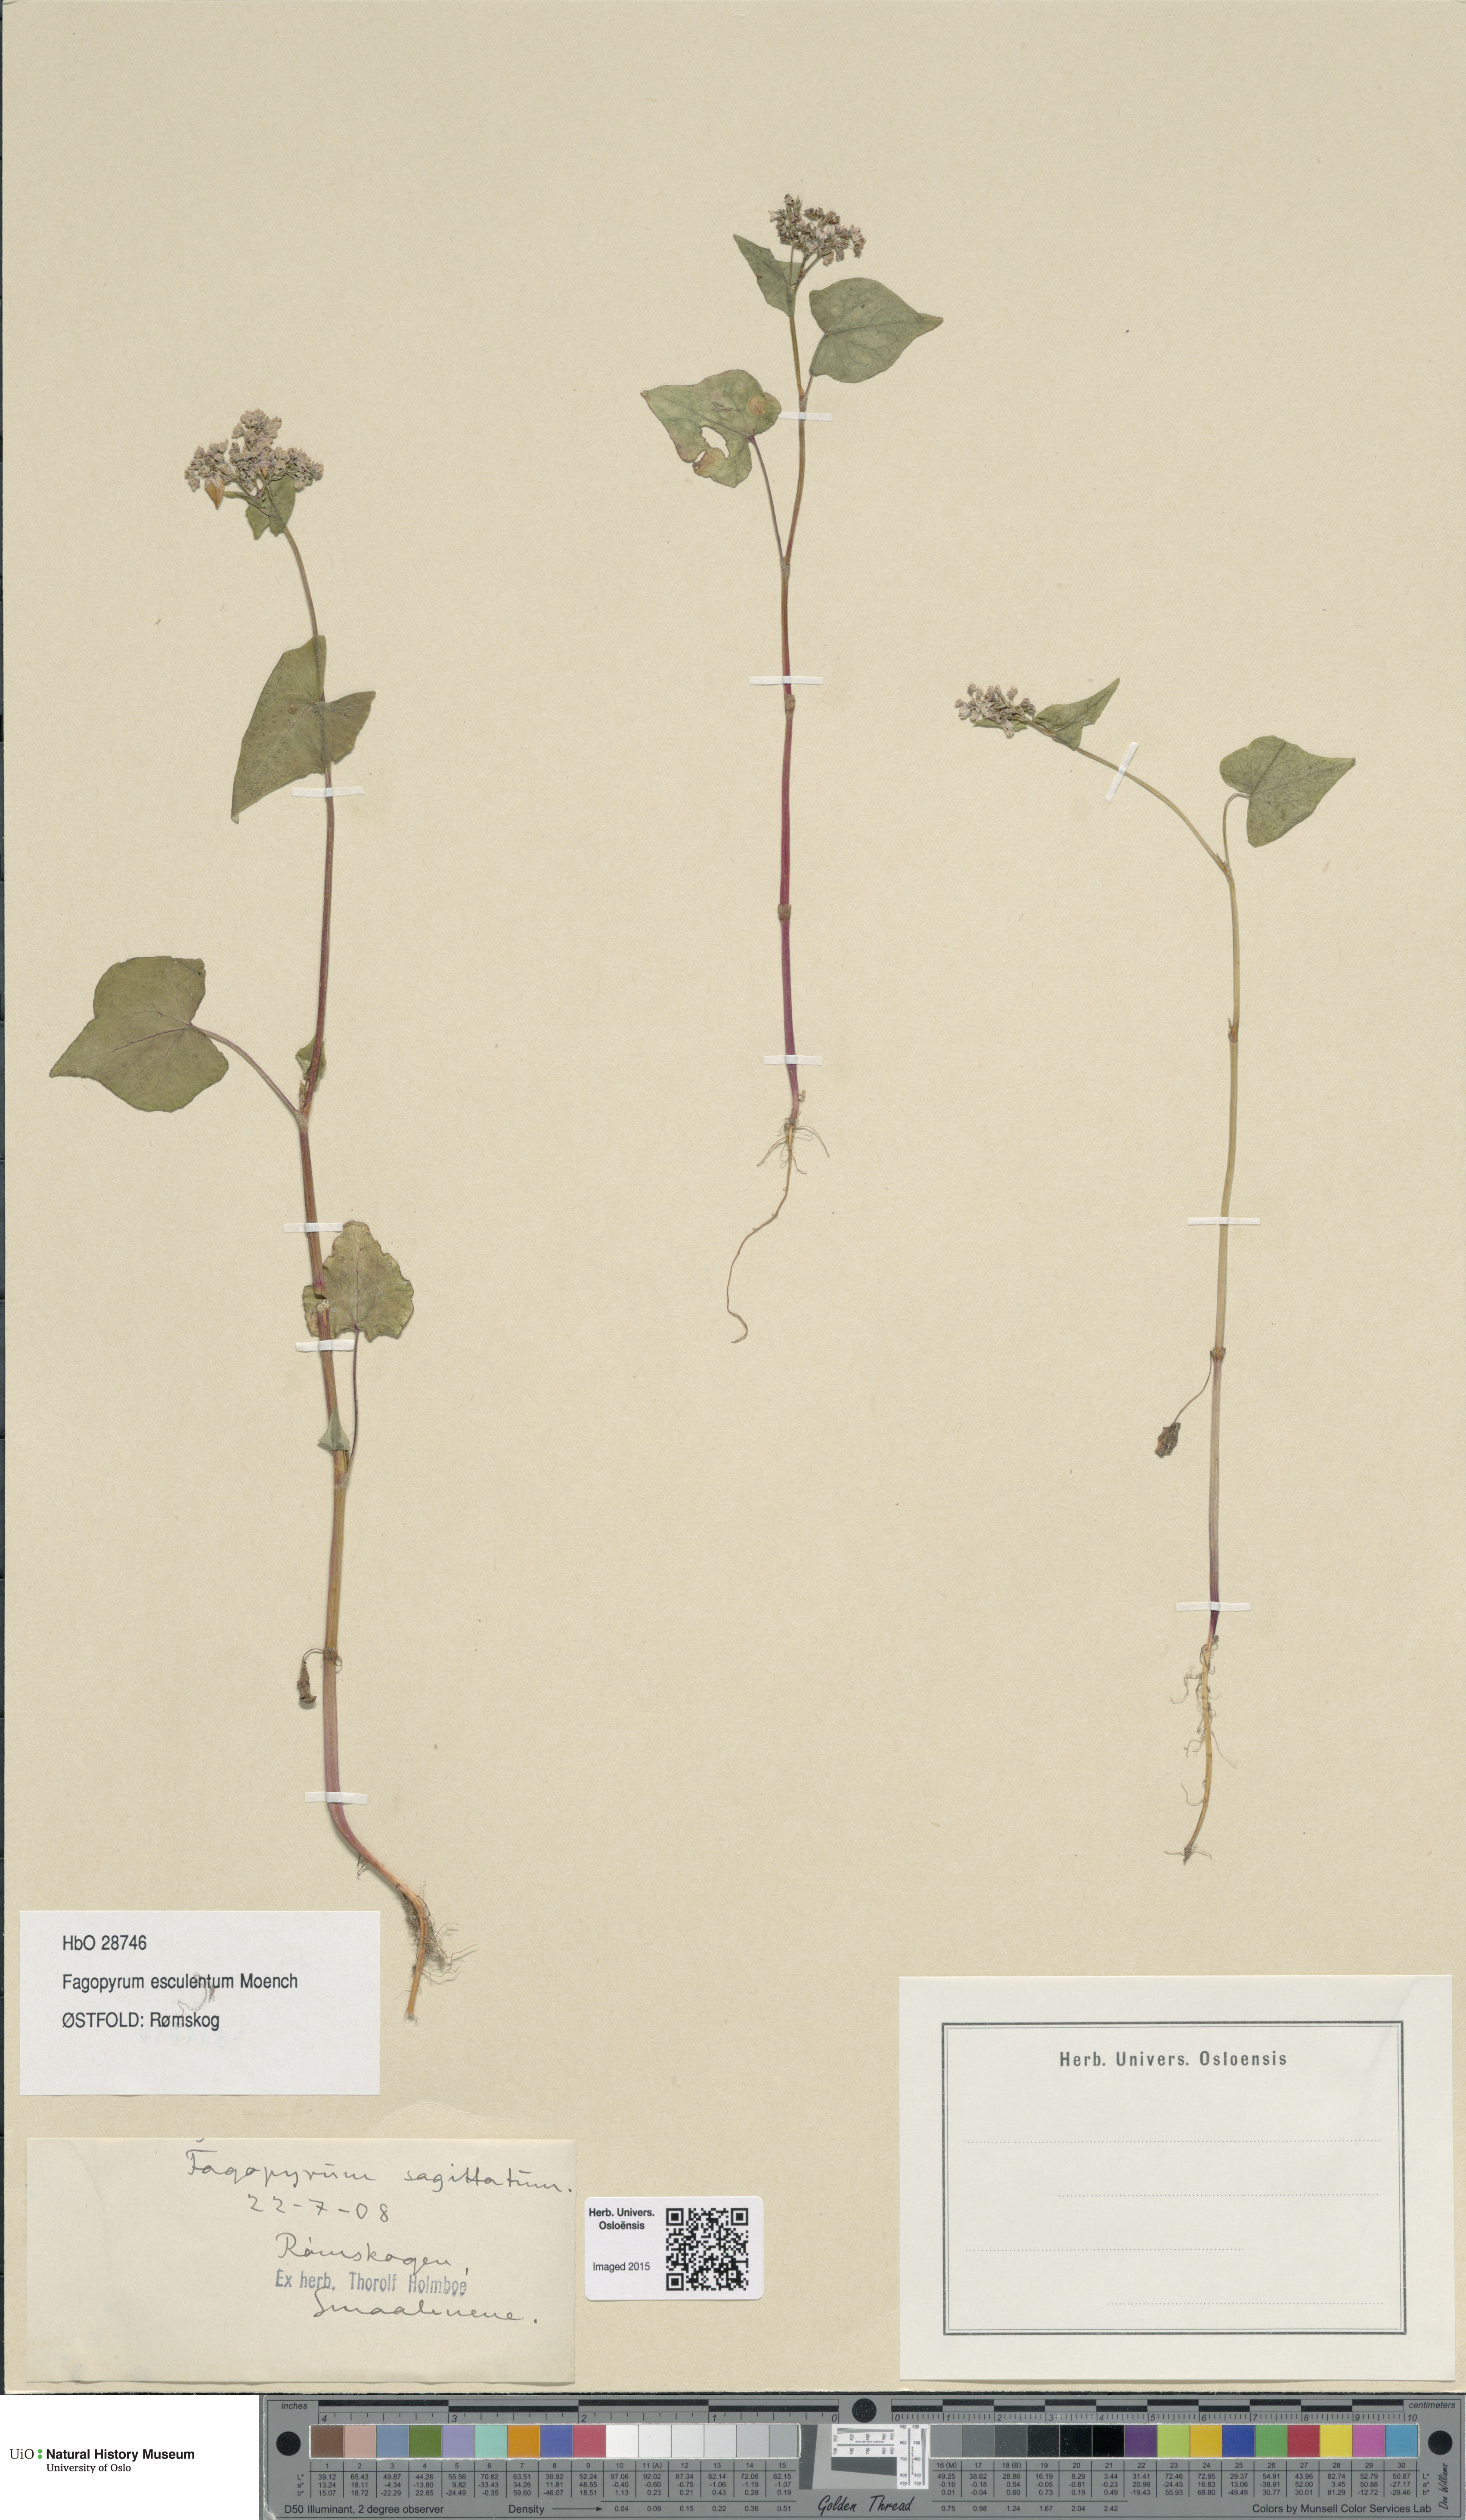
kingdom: Plantae
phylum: Tracheophyta
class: Magnoliopsida
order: Caryophyllales
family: Polygonaceae
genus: Fagopyrum
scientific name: Fagopyrum esculentum
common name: Buckwheat
